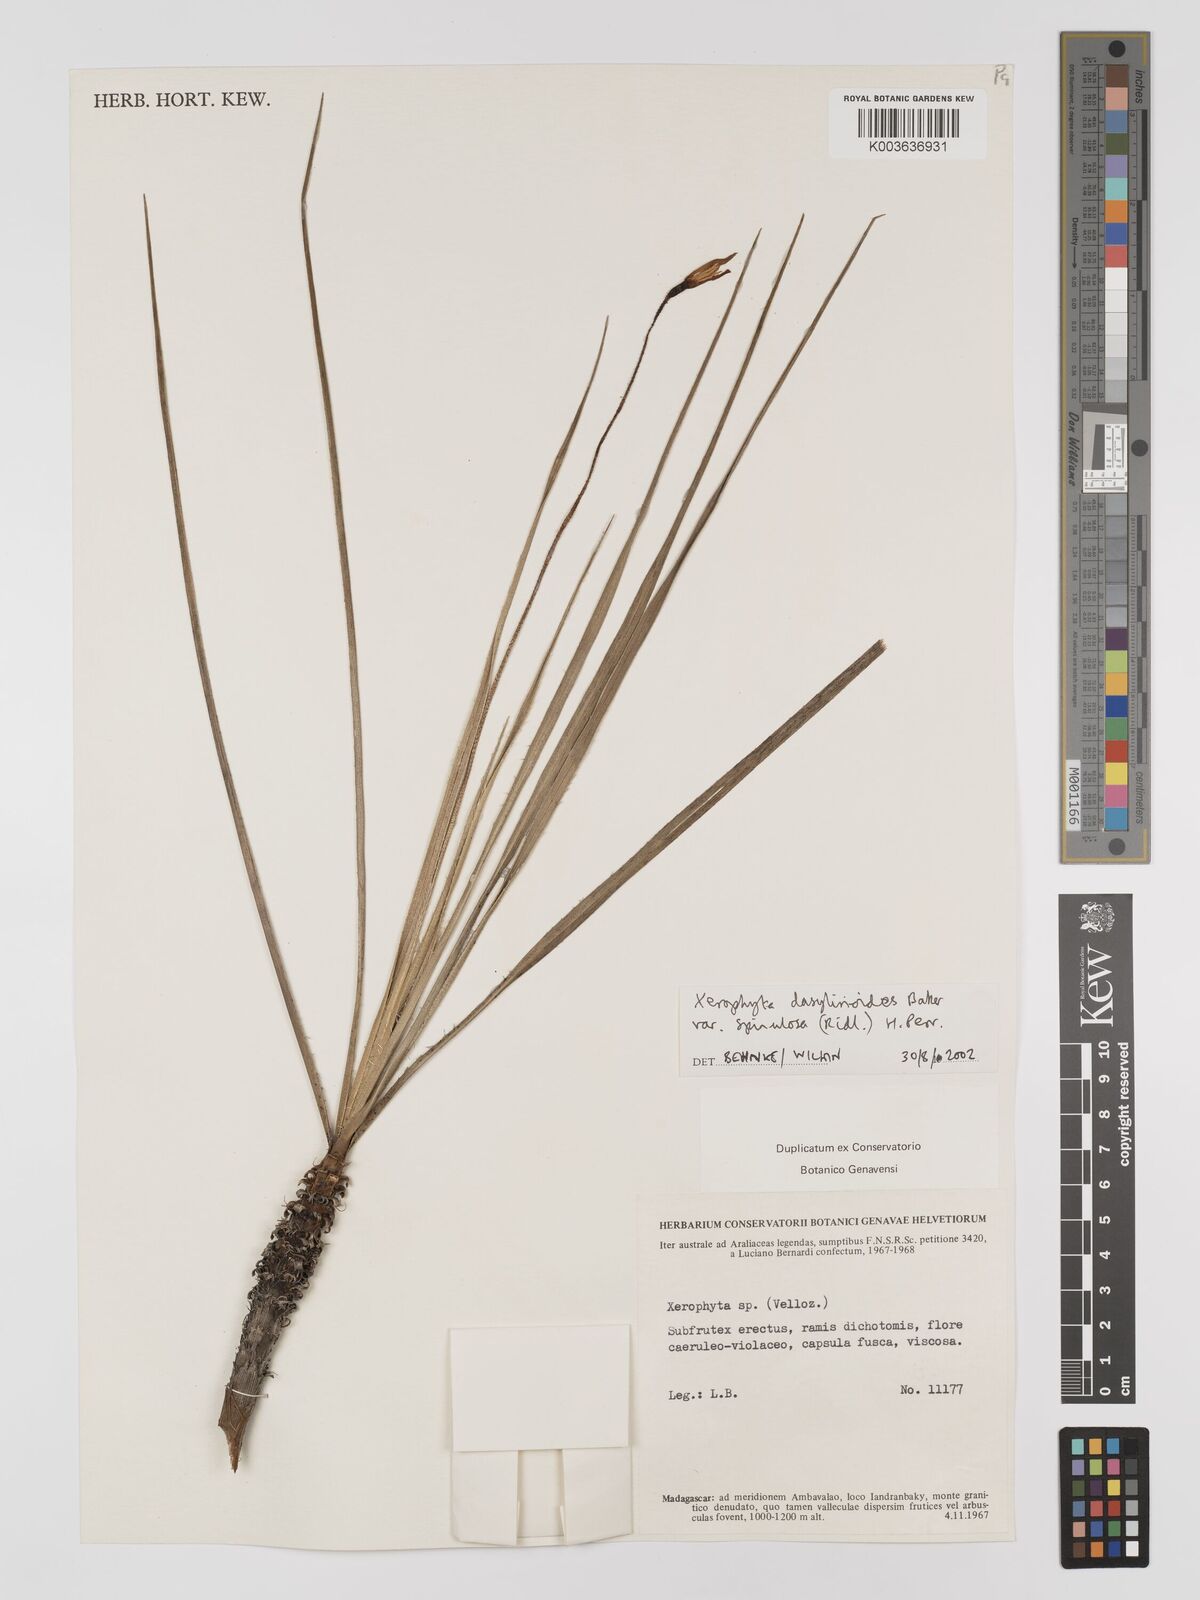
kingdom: Plantae
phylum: Tracheophyta
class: Liliopsida
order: Pandanales
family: Velloziaceae
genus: Xerophyta
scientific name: Xerophyta pectinata
